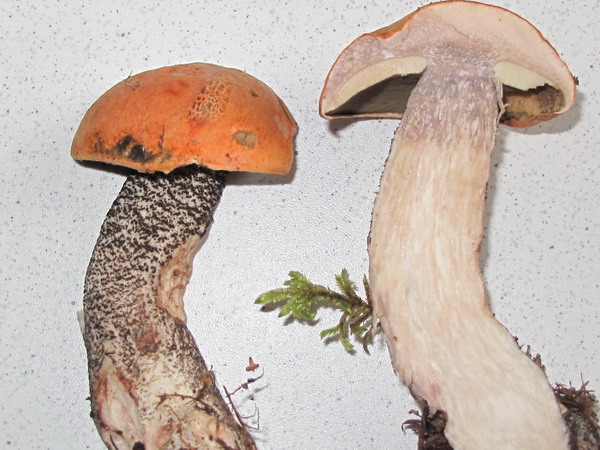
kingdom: Fungi
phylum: Basidiomycota
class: Agaricomycetes
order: Boletales
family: Boletaceae
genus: Leccinum
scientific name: Leccinum versipelle
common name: orange skælrørhat
